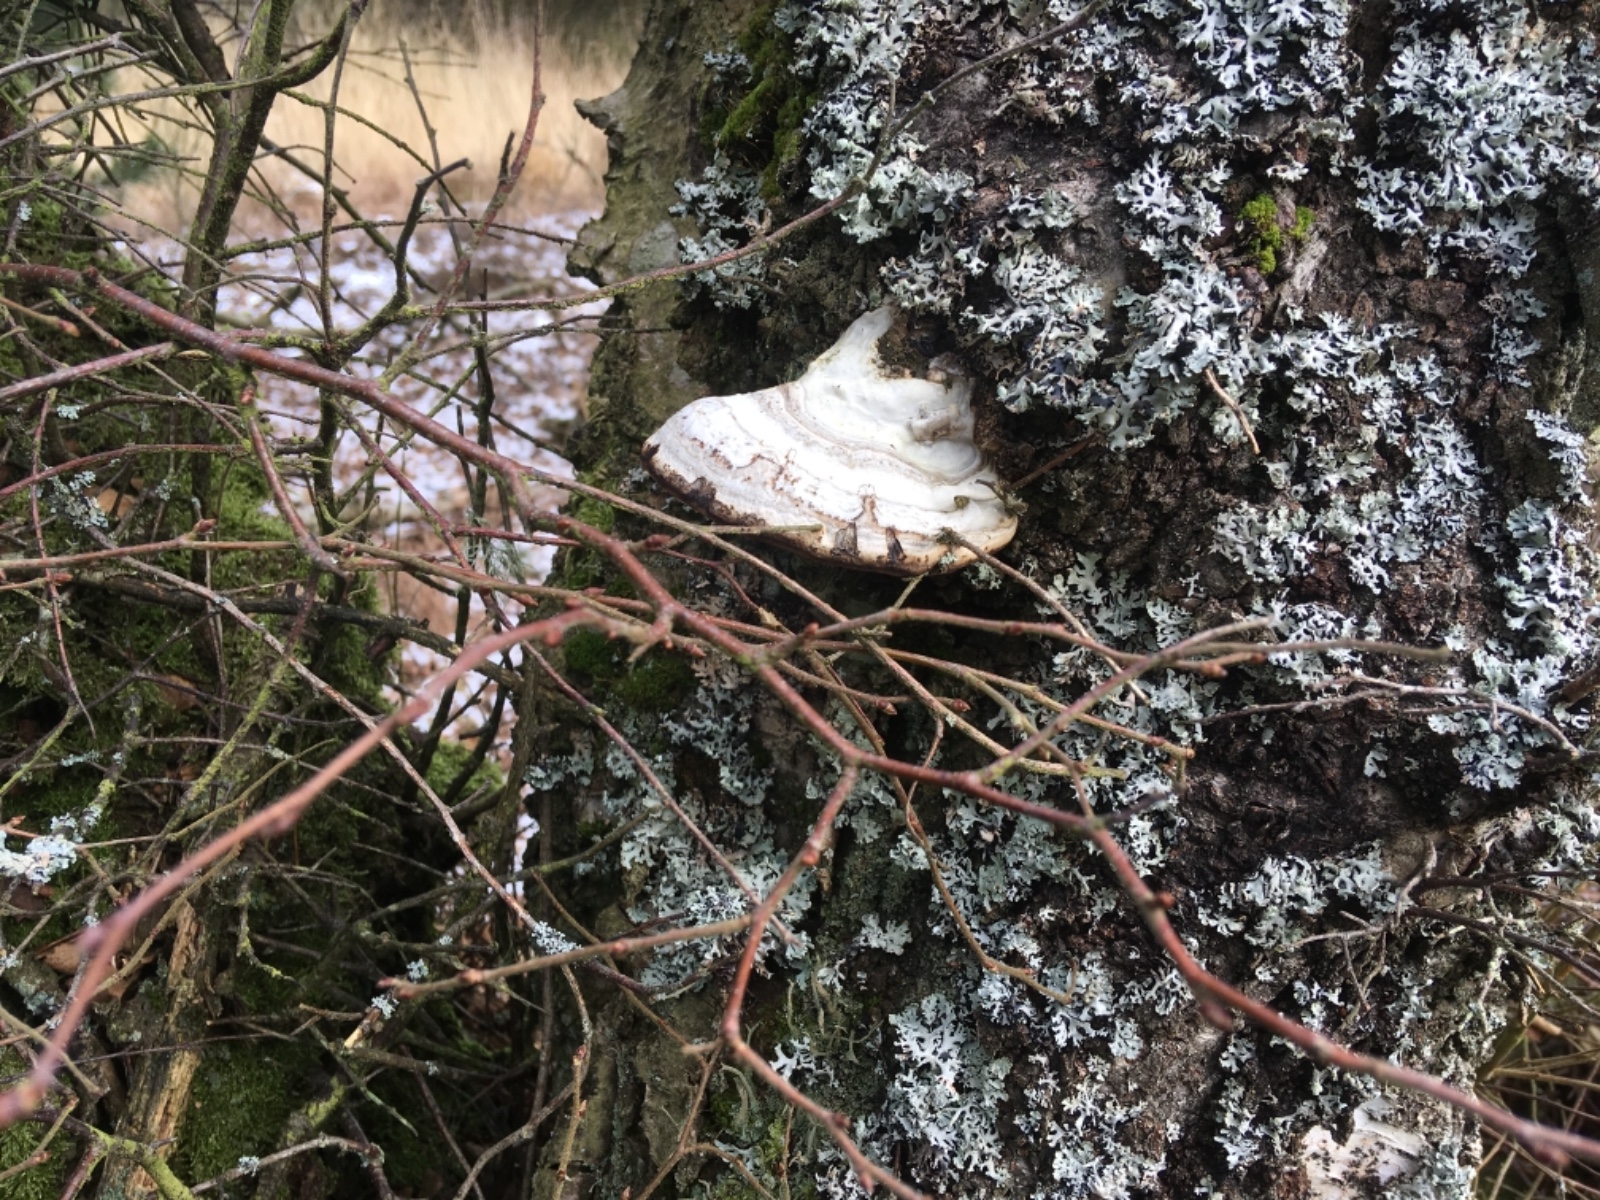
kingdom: Fungi
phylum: Basidiomycota
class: Agaricomycetes
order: Polyporales
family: Polyporaceae
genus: Fomes
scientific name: Fomes fomentarius
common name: tøndersvamp
